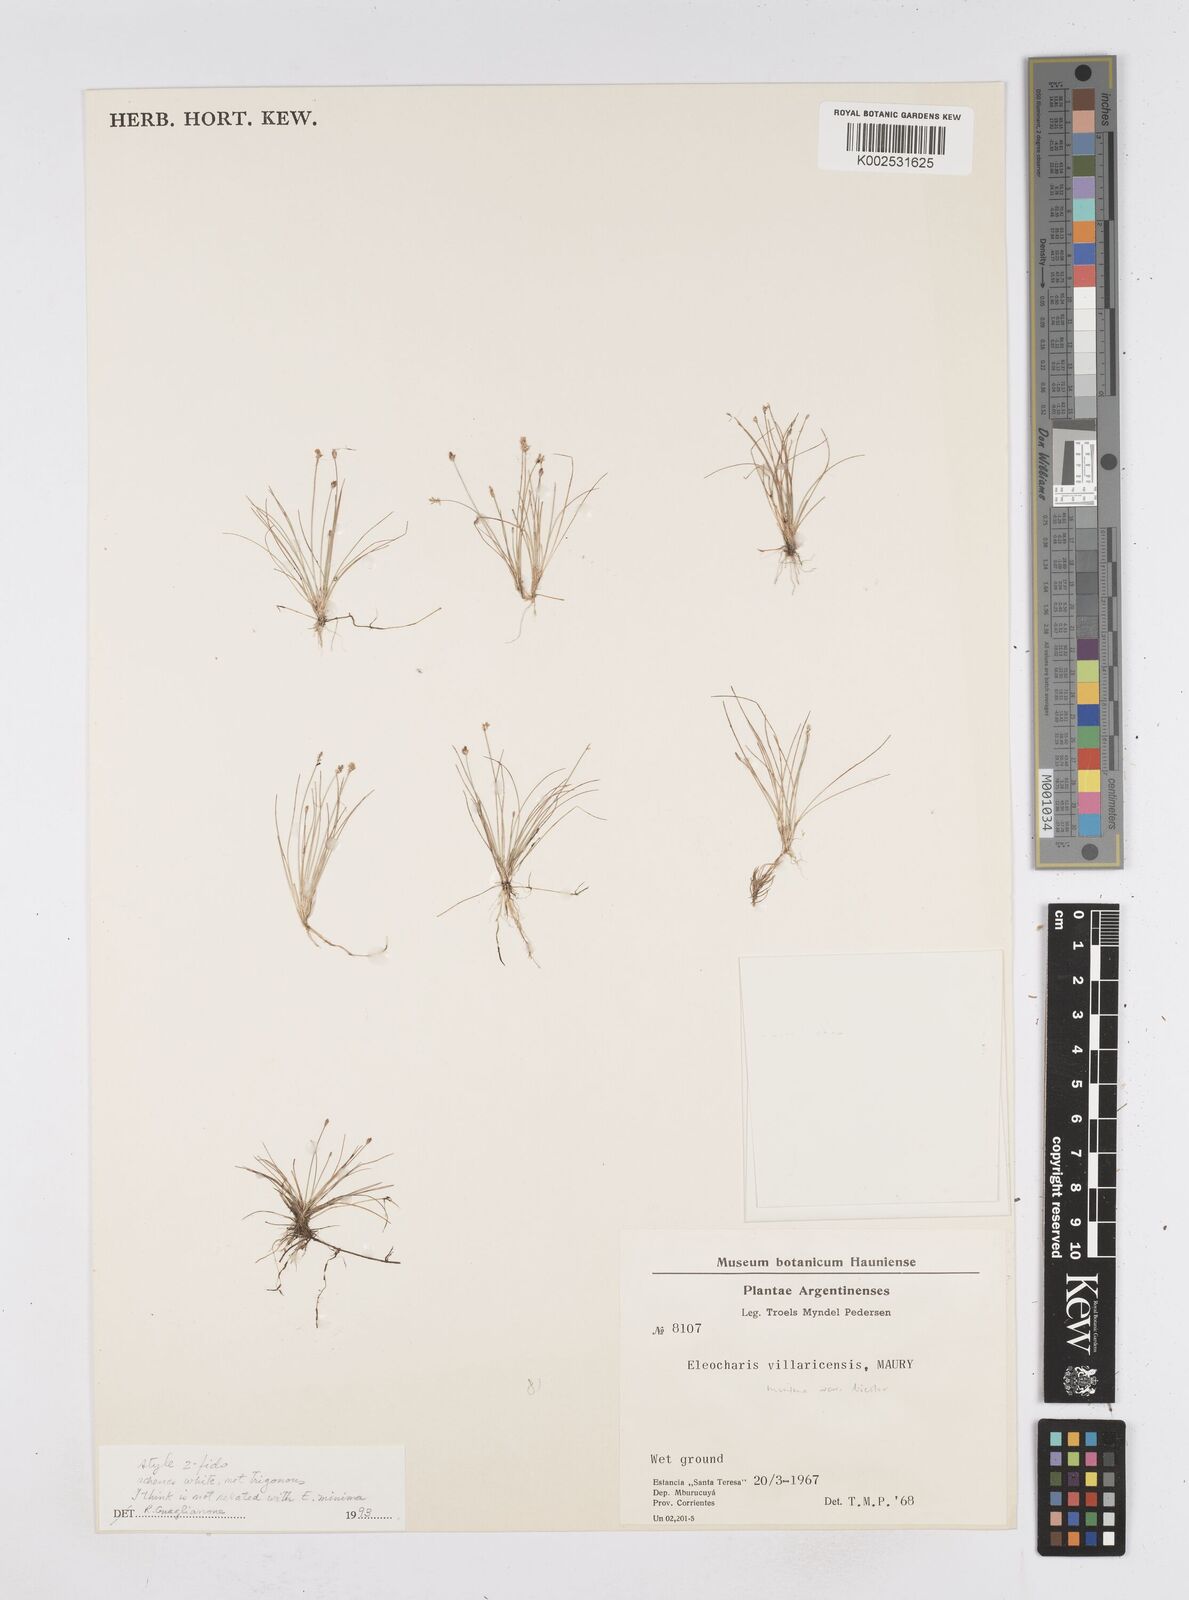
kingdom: Plantae
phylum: Tracheophyta
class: Liliopsida
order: Poales
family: Cyperaceae
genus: Eleocharis
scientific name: Eleocharis minima
